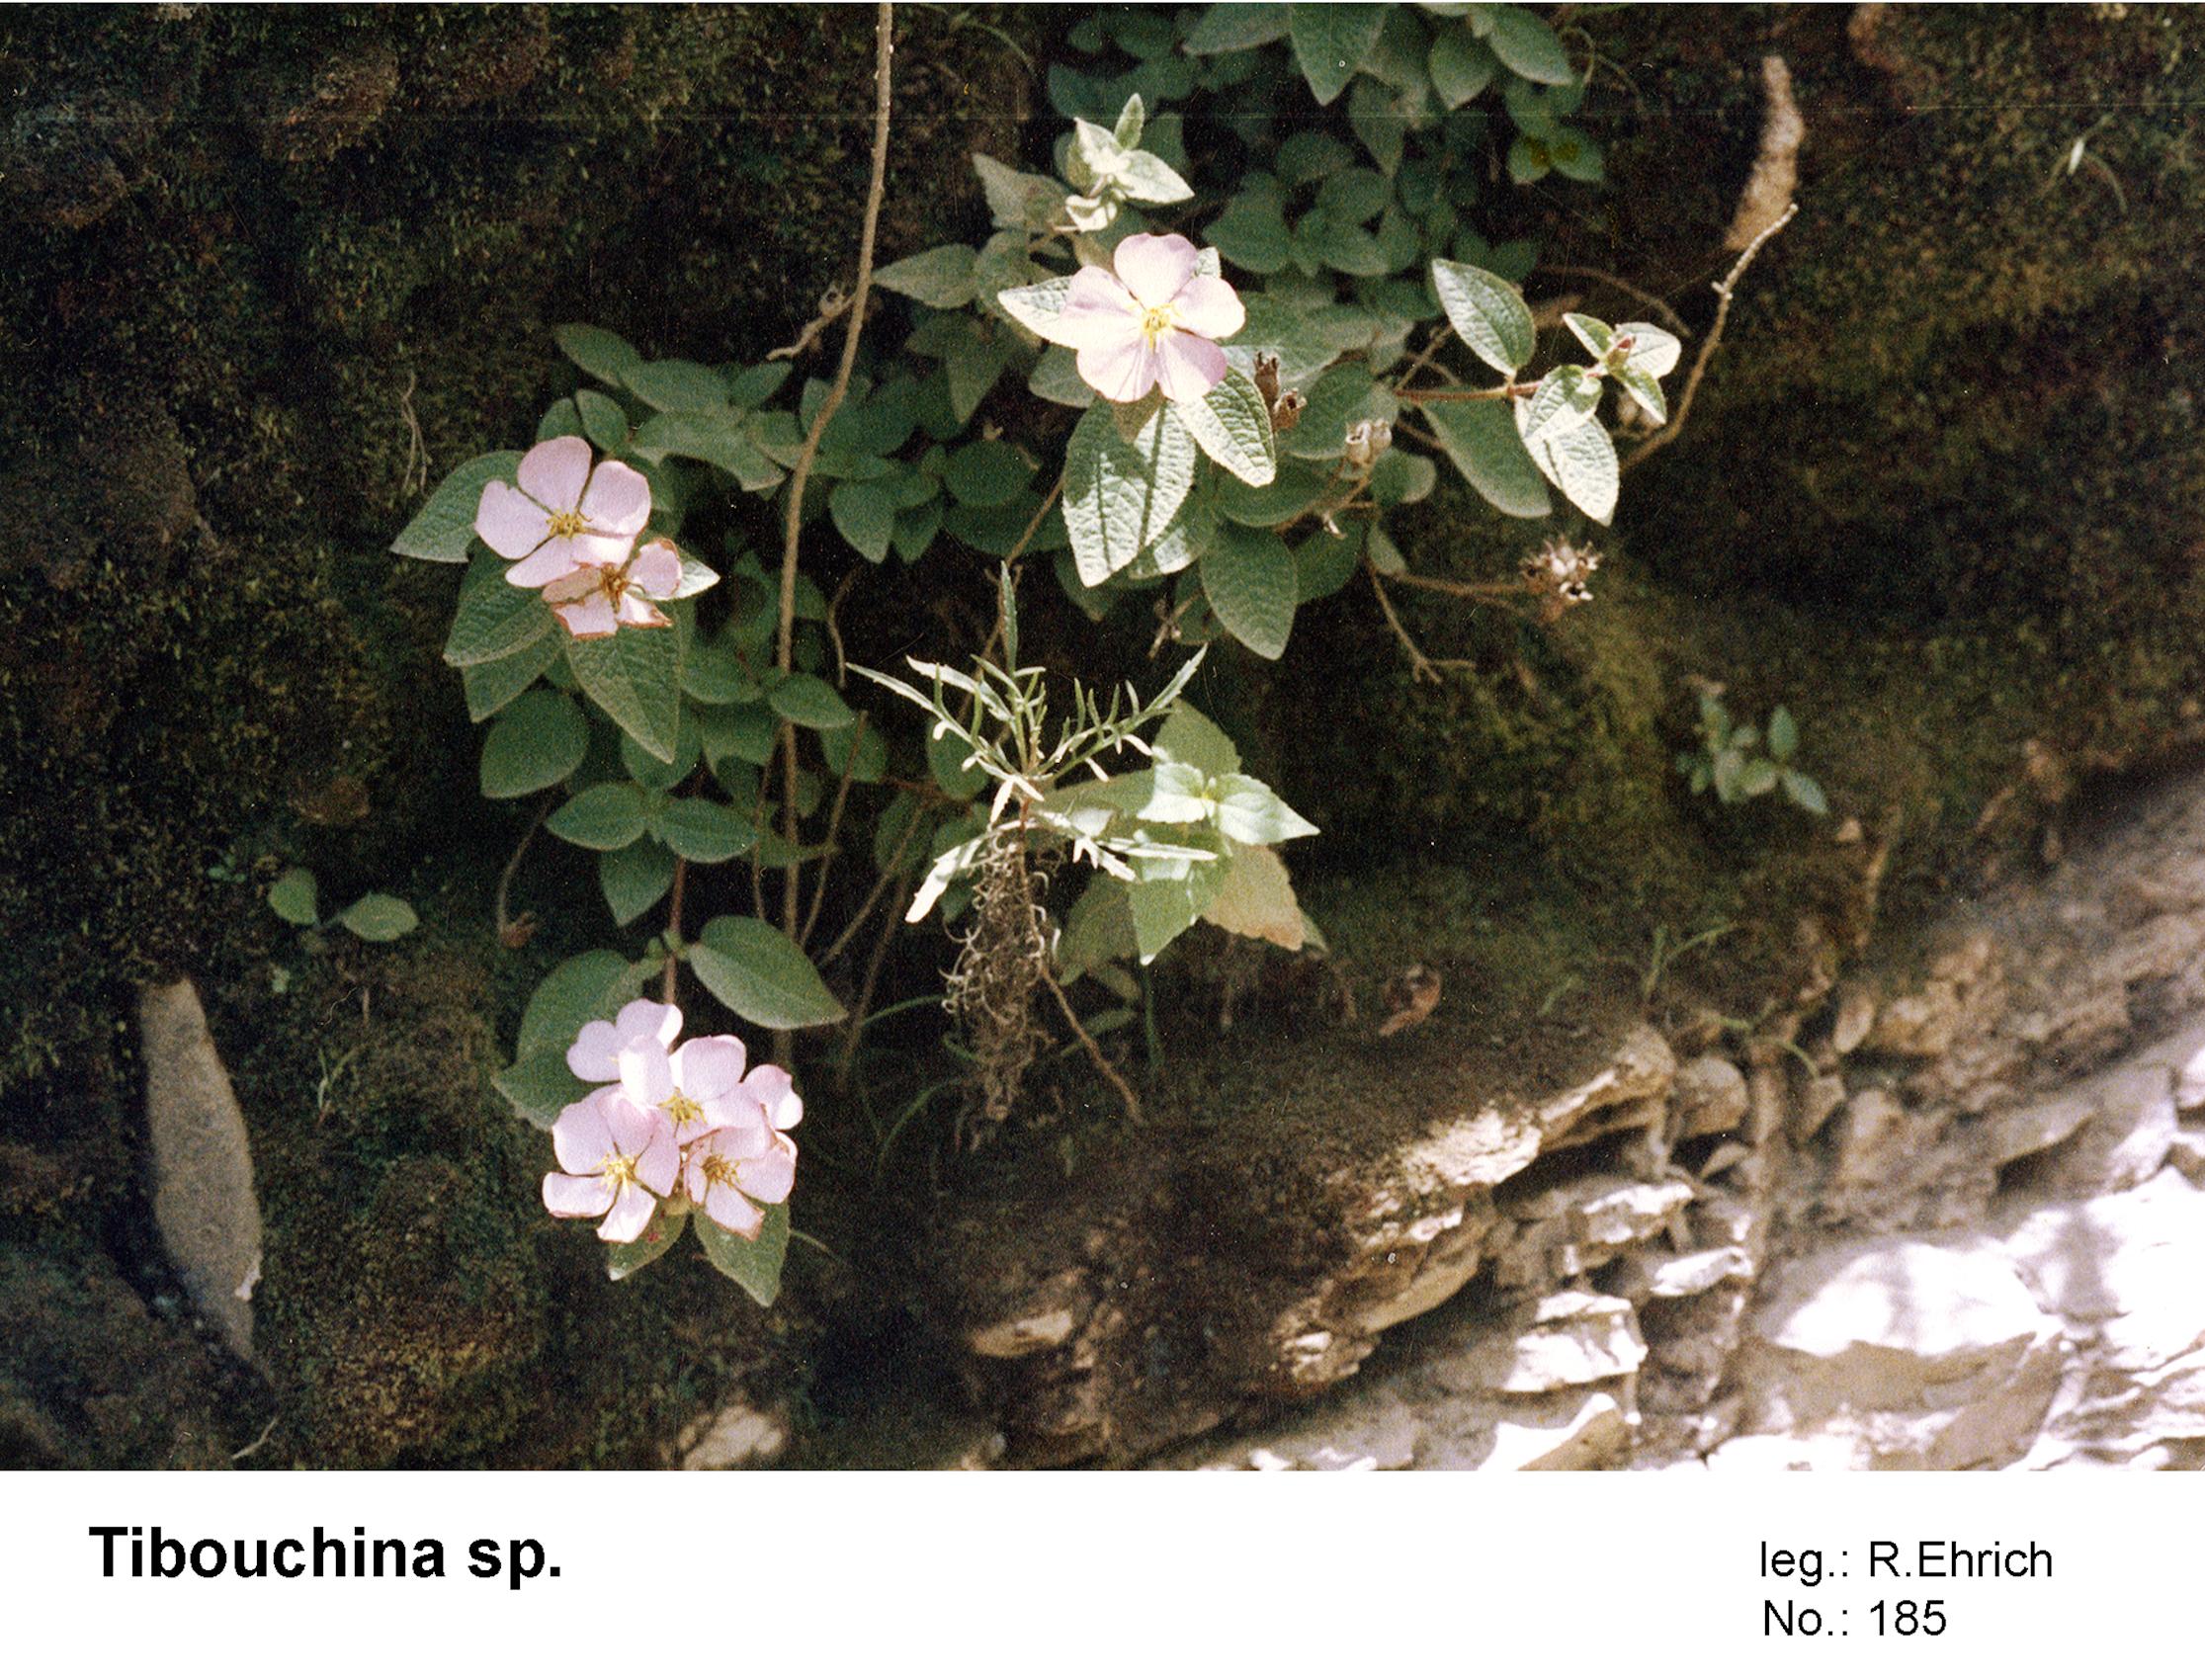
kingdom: Plantae
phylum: Tracheophyta
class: Magnoliopsida
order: Myrtales
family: Melastomataceae
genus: Tibouchina
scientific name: Tibouchina
